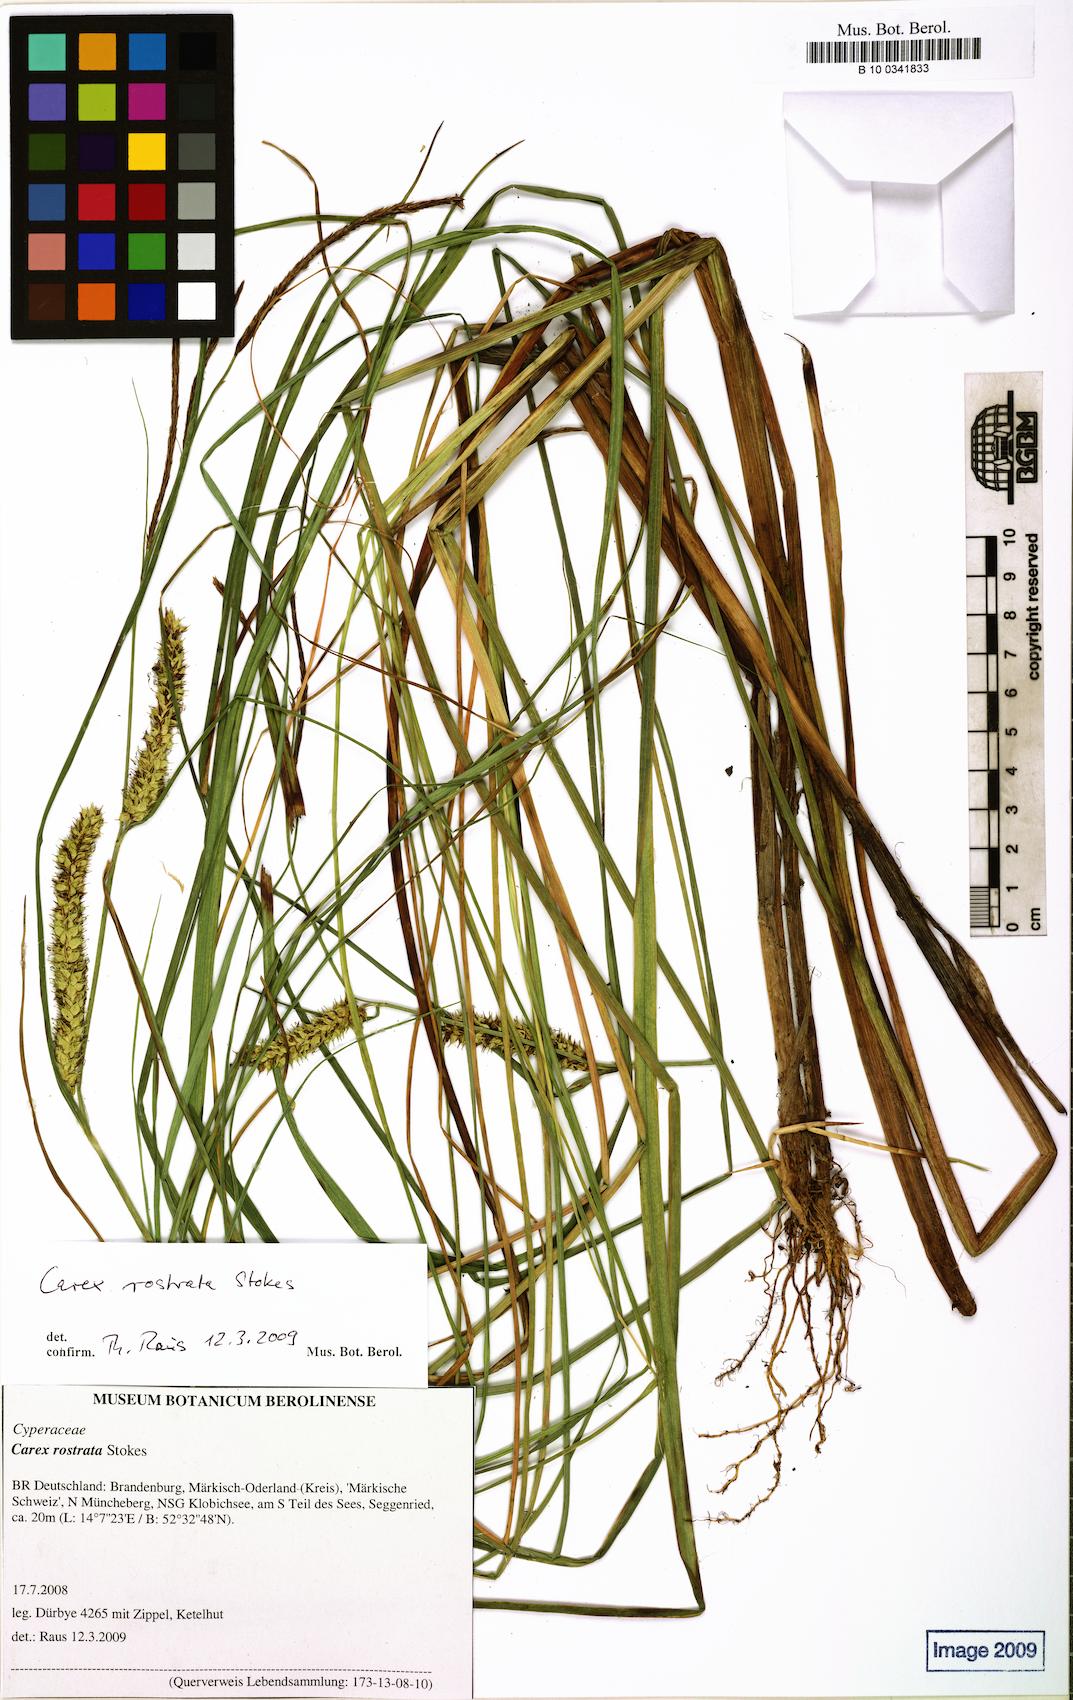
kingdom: Plantae
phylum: Tracheophyta
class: Liliopsida
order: Poales
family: Cyperaceae
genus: Carex
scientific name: Carex rostrata
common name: Bottle sedge
